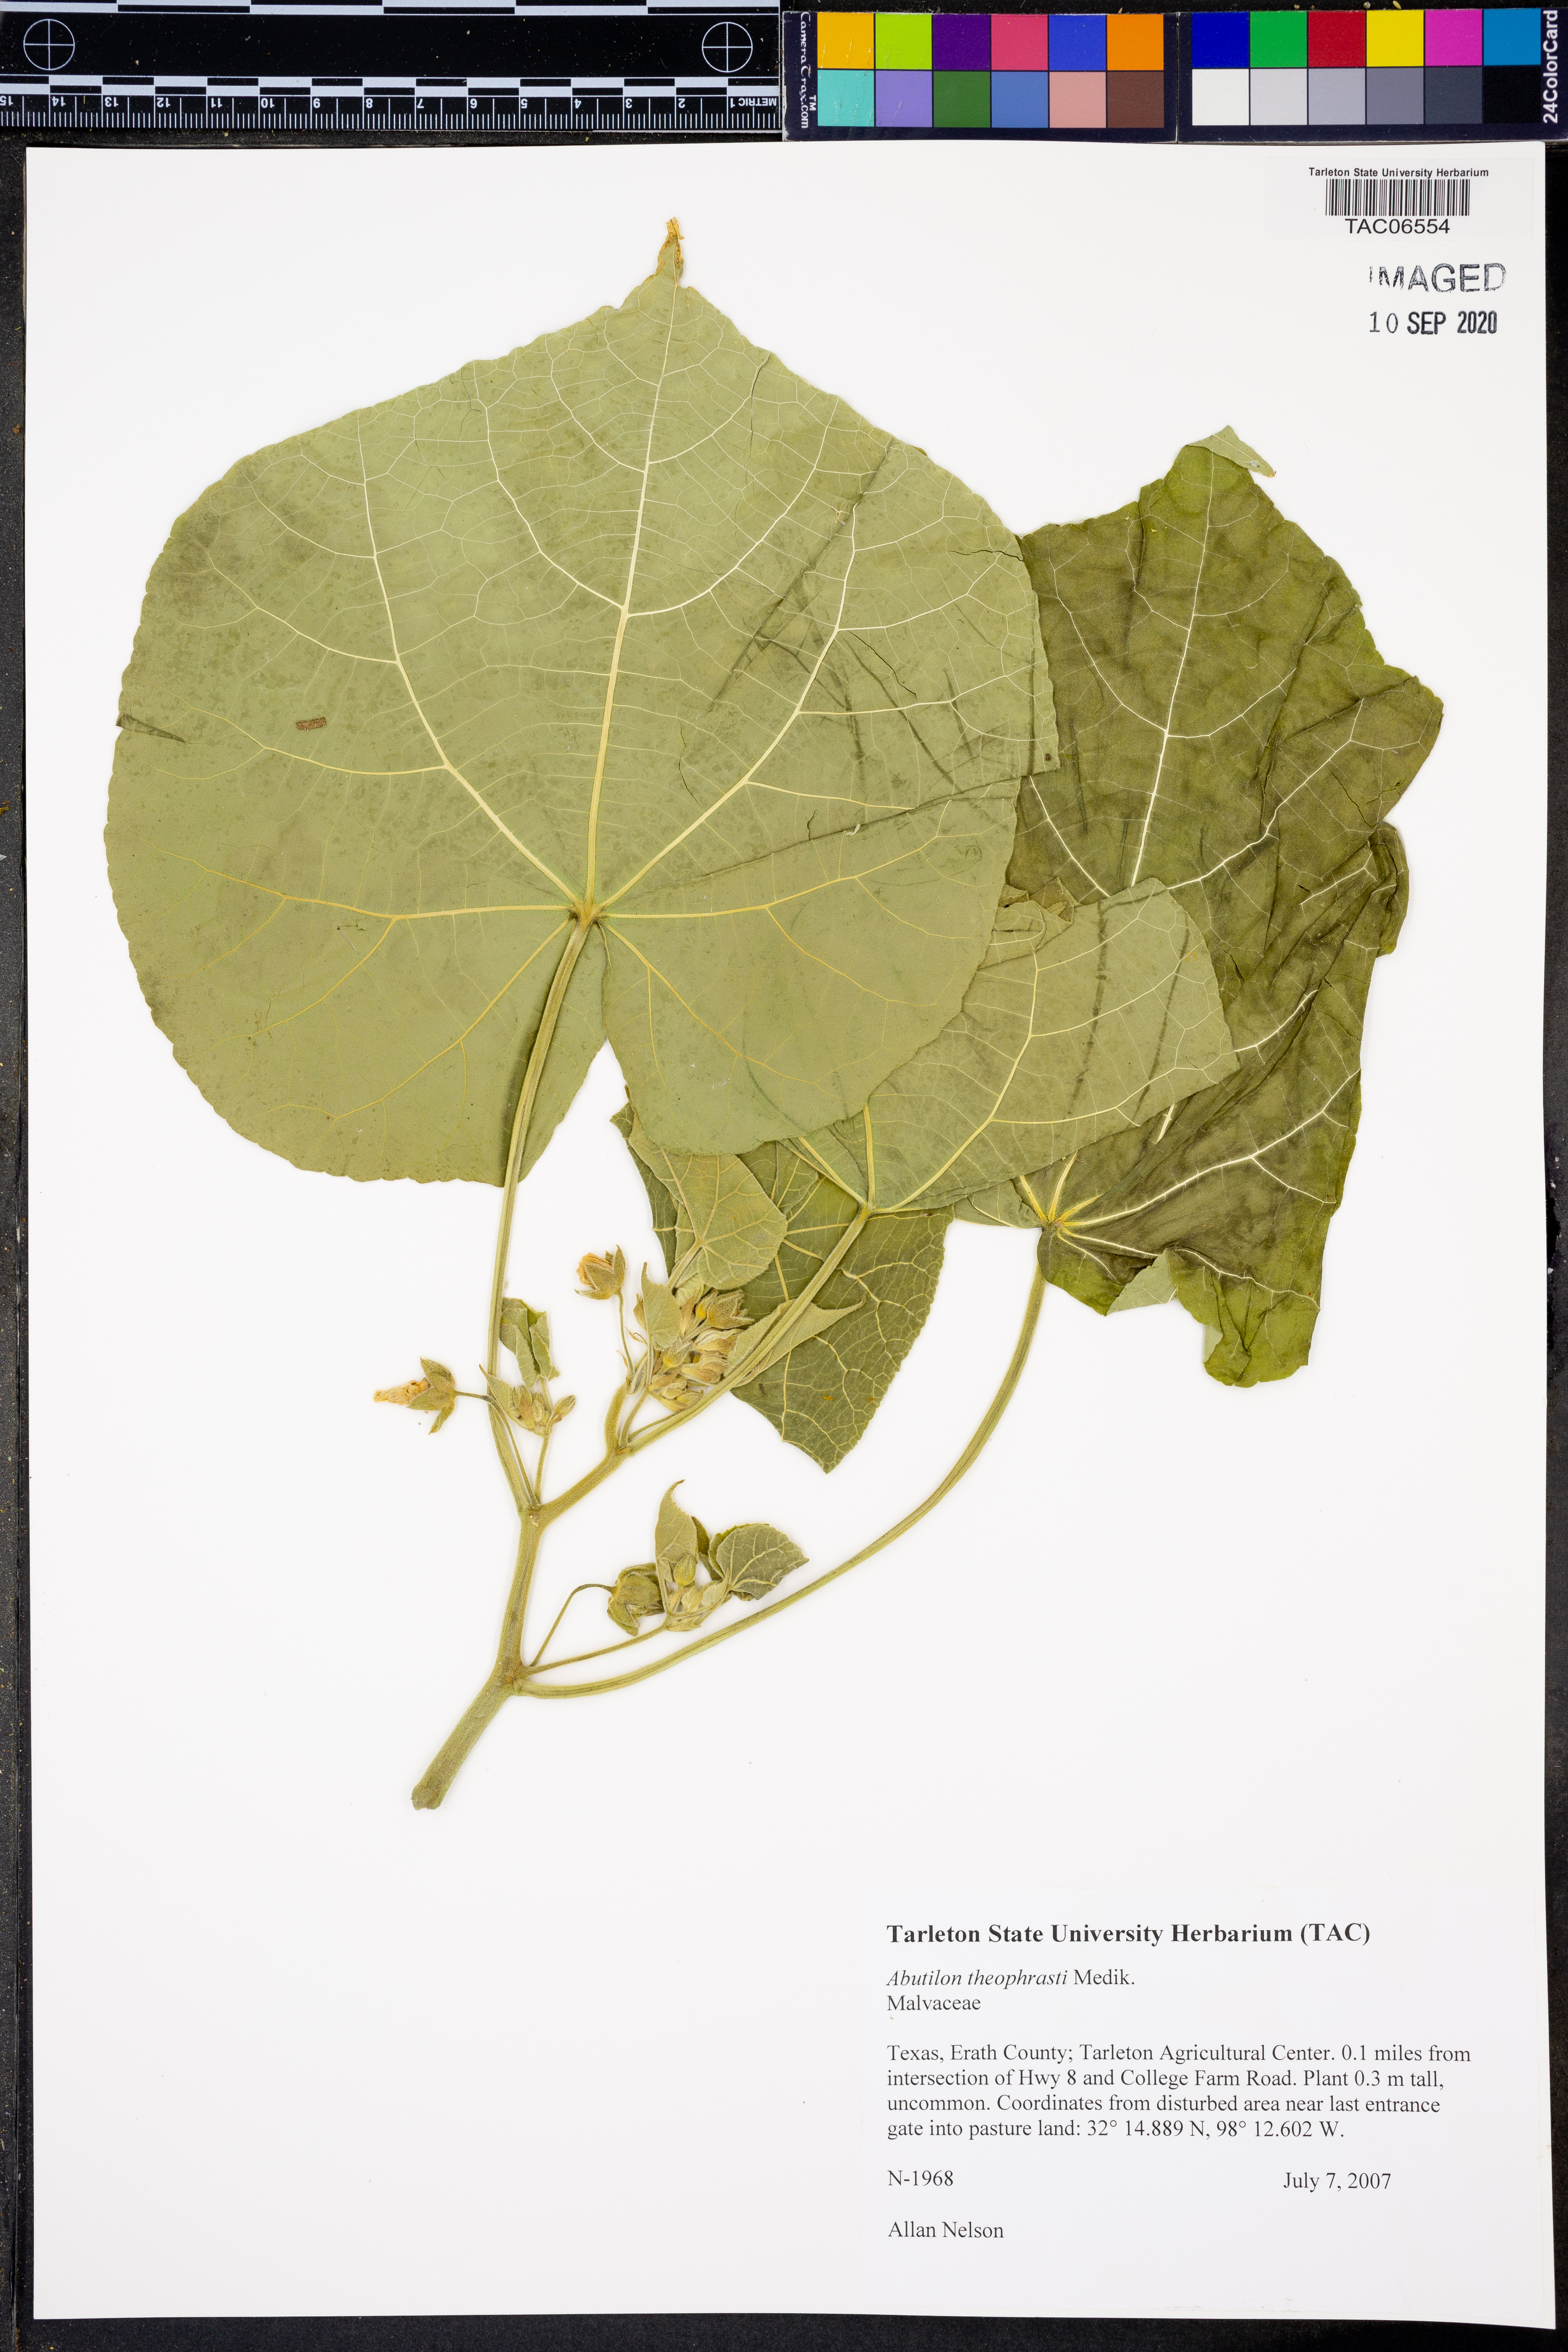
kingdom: Plantae
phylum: Tracheophyta
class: Magnoliopsida
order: Malvales
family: Malvaceae
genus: Abutilon
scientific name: Abutilon theophrasti
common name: Velvetleaf
